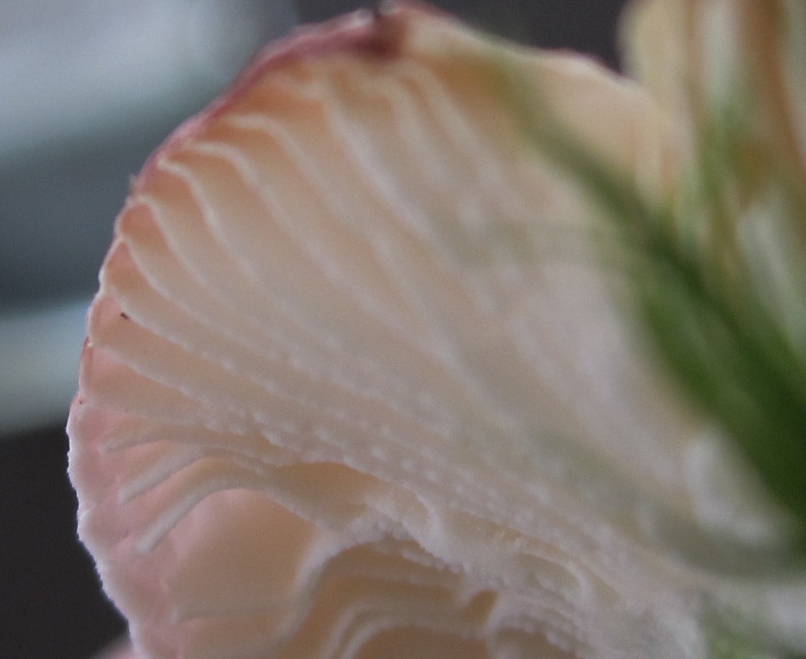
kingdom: Fungi
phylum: Basidiomycota
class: Agaricomycetes
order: Russulales
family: Russulaceae
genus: Russula
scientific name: Russula fragilis
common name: Fragile brittlegill
